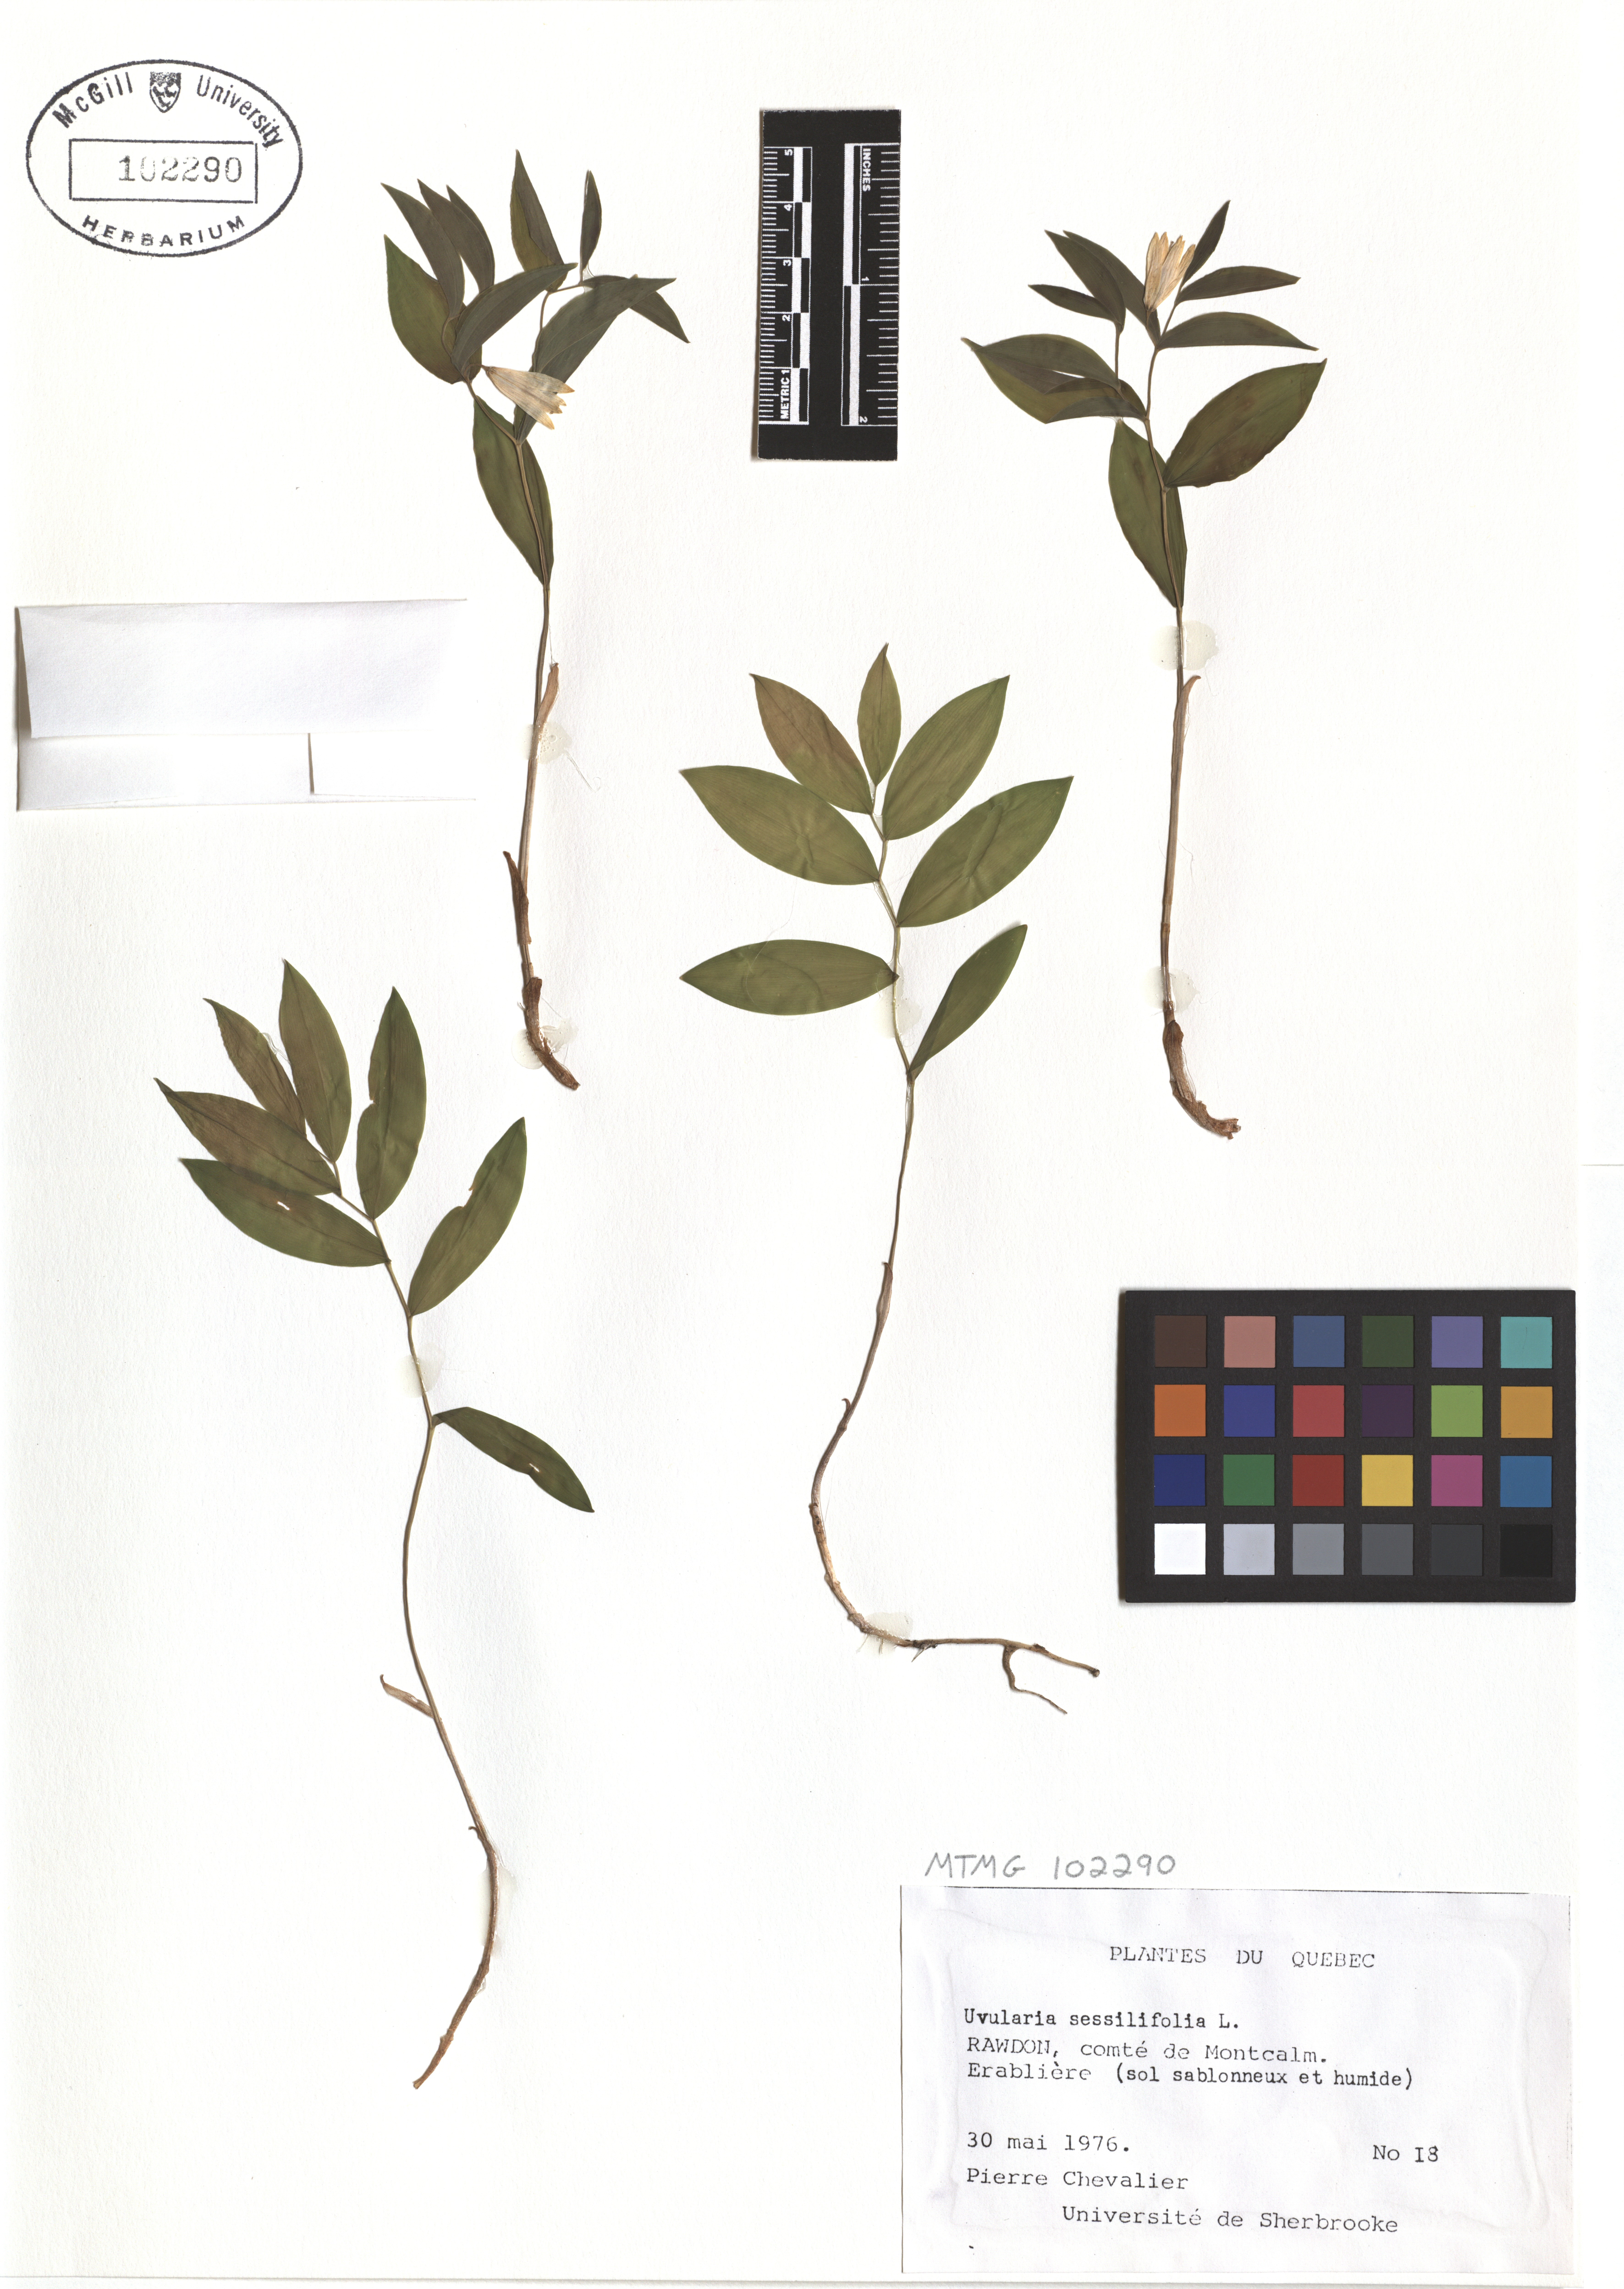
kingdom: Plantae
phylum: Tracheophyta
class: Liliopsida
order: Liliales
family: Colchicaceae
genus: Uvularia
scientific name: Uvularia sessilifolia
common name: Straw-lily
